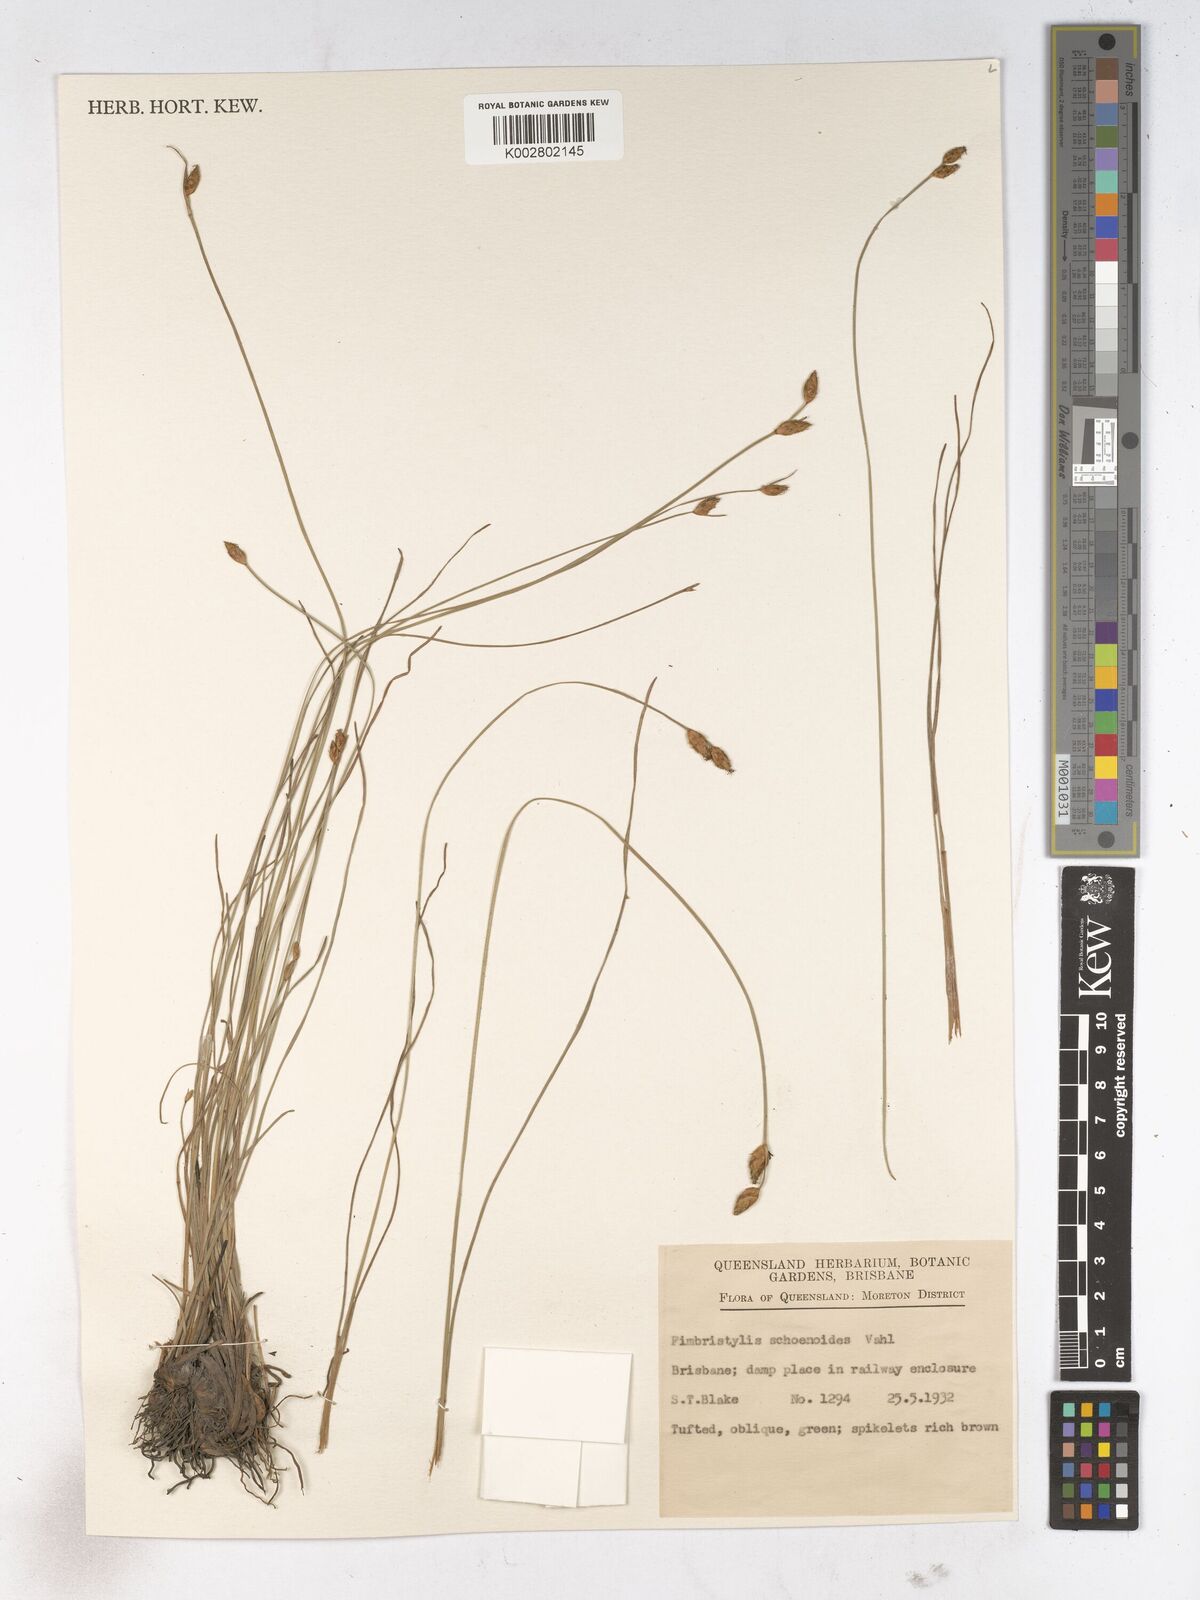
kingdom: Plantae
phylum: Tracheophyta
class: Liliopsida
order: Poales
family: Cyperaceae
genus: Fimbristylis
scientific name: Fimbristylis schoenoides
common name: Ditch fimbry
